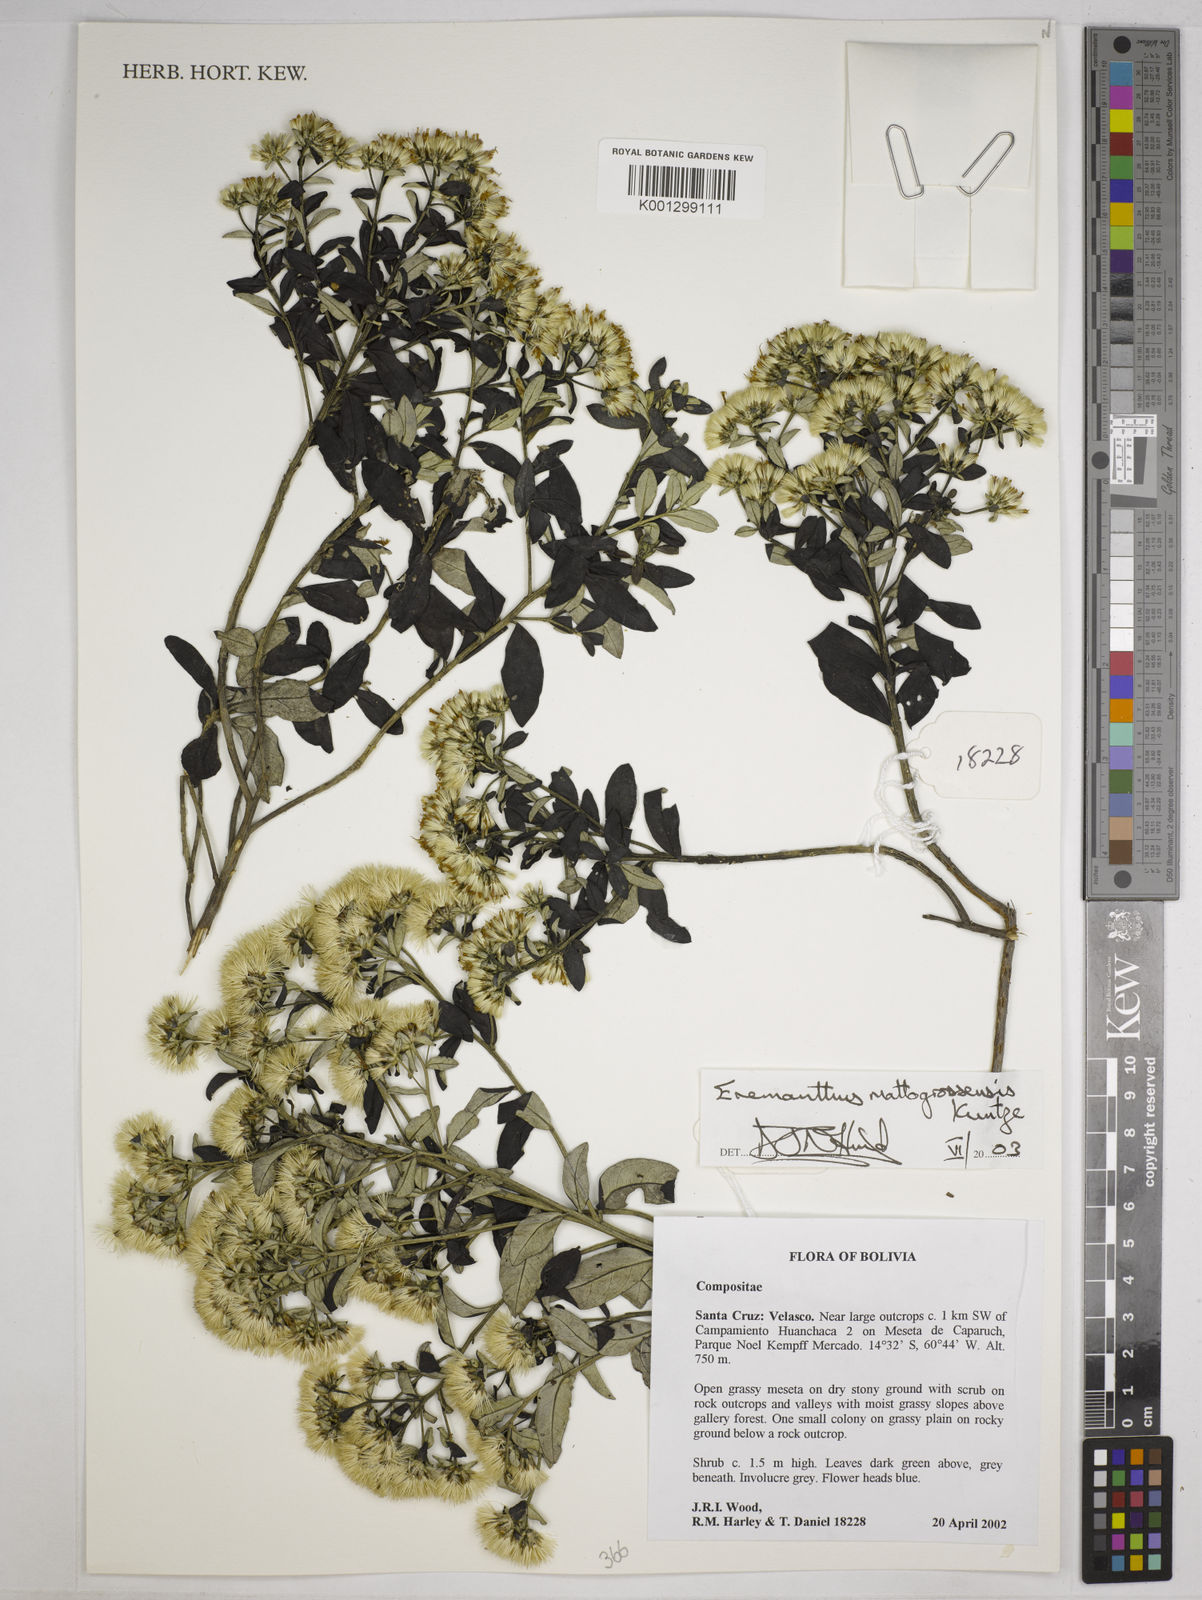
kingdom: Plantae
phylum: Tracheophyta
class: Magnoliopsida
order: Asterales
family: Asteraceae
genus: Eremanthus
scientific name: Eremanthus mattogrossensis
